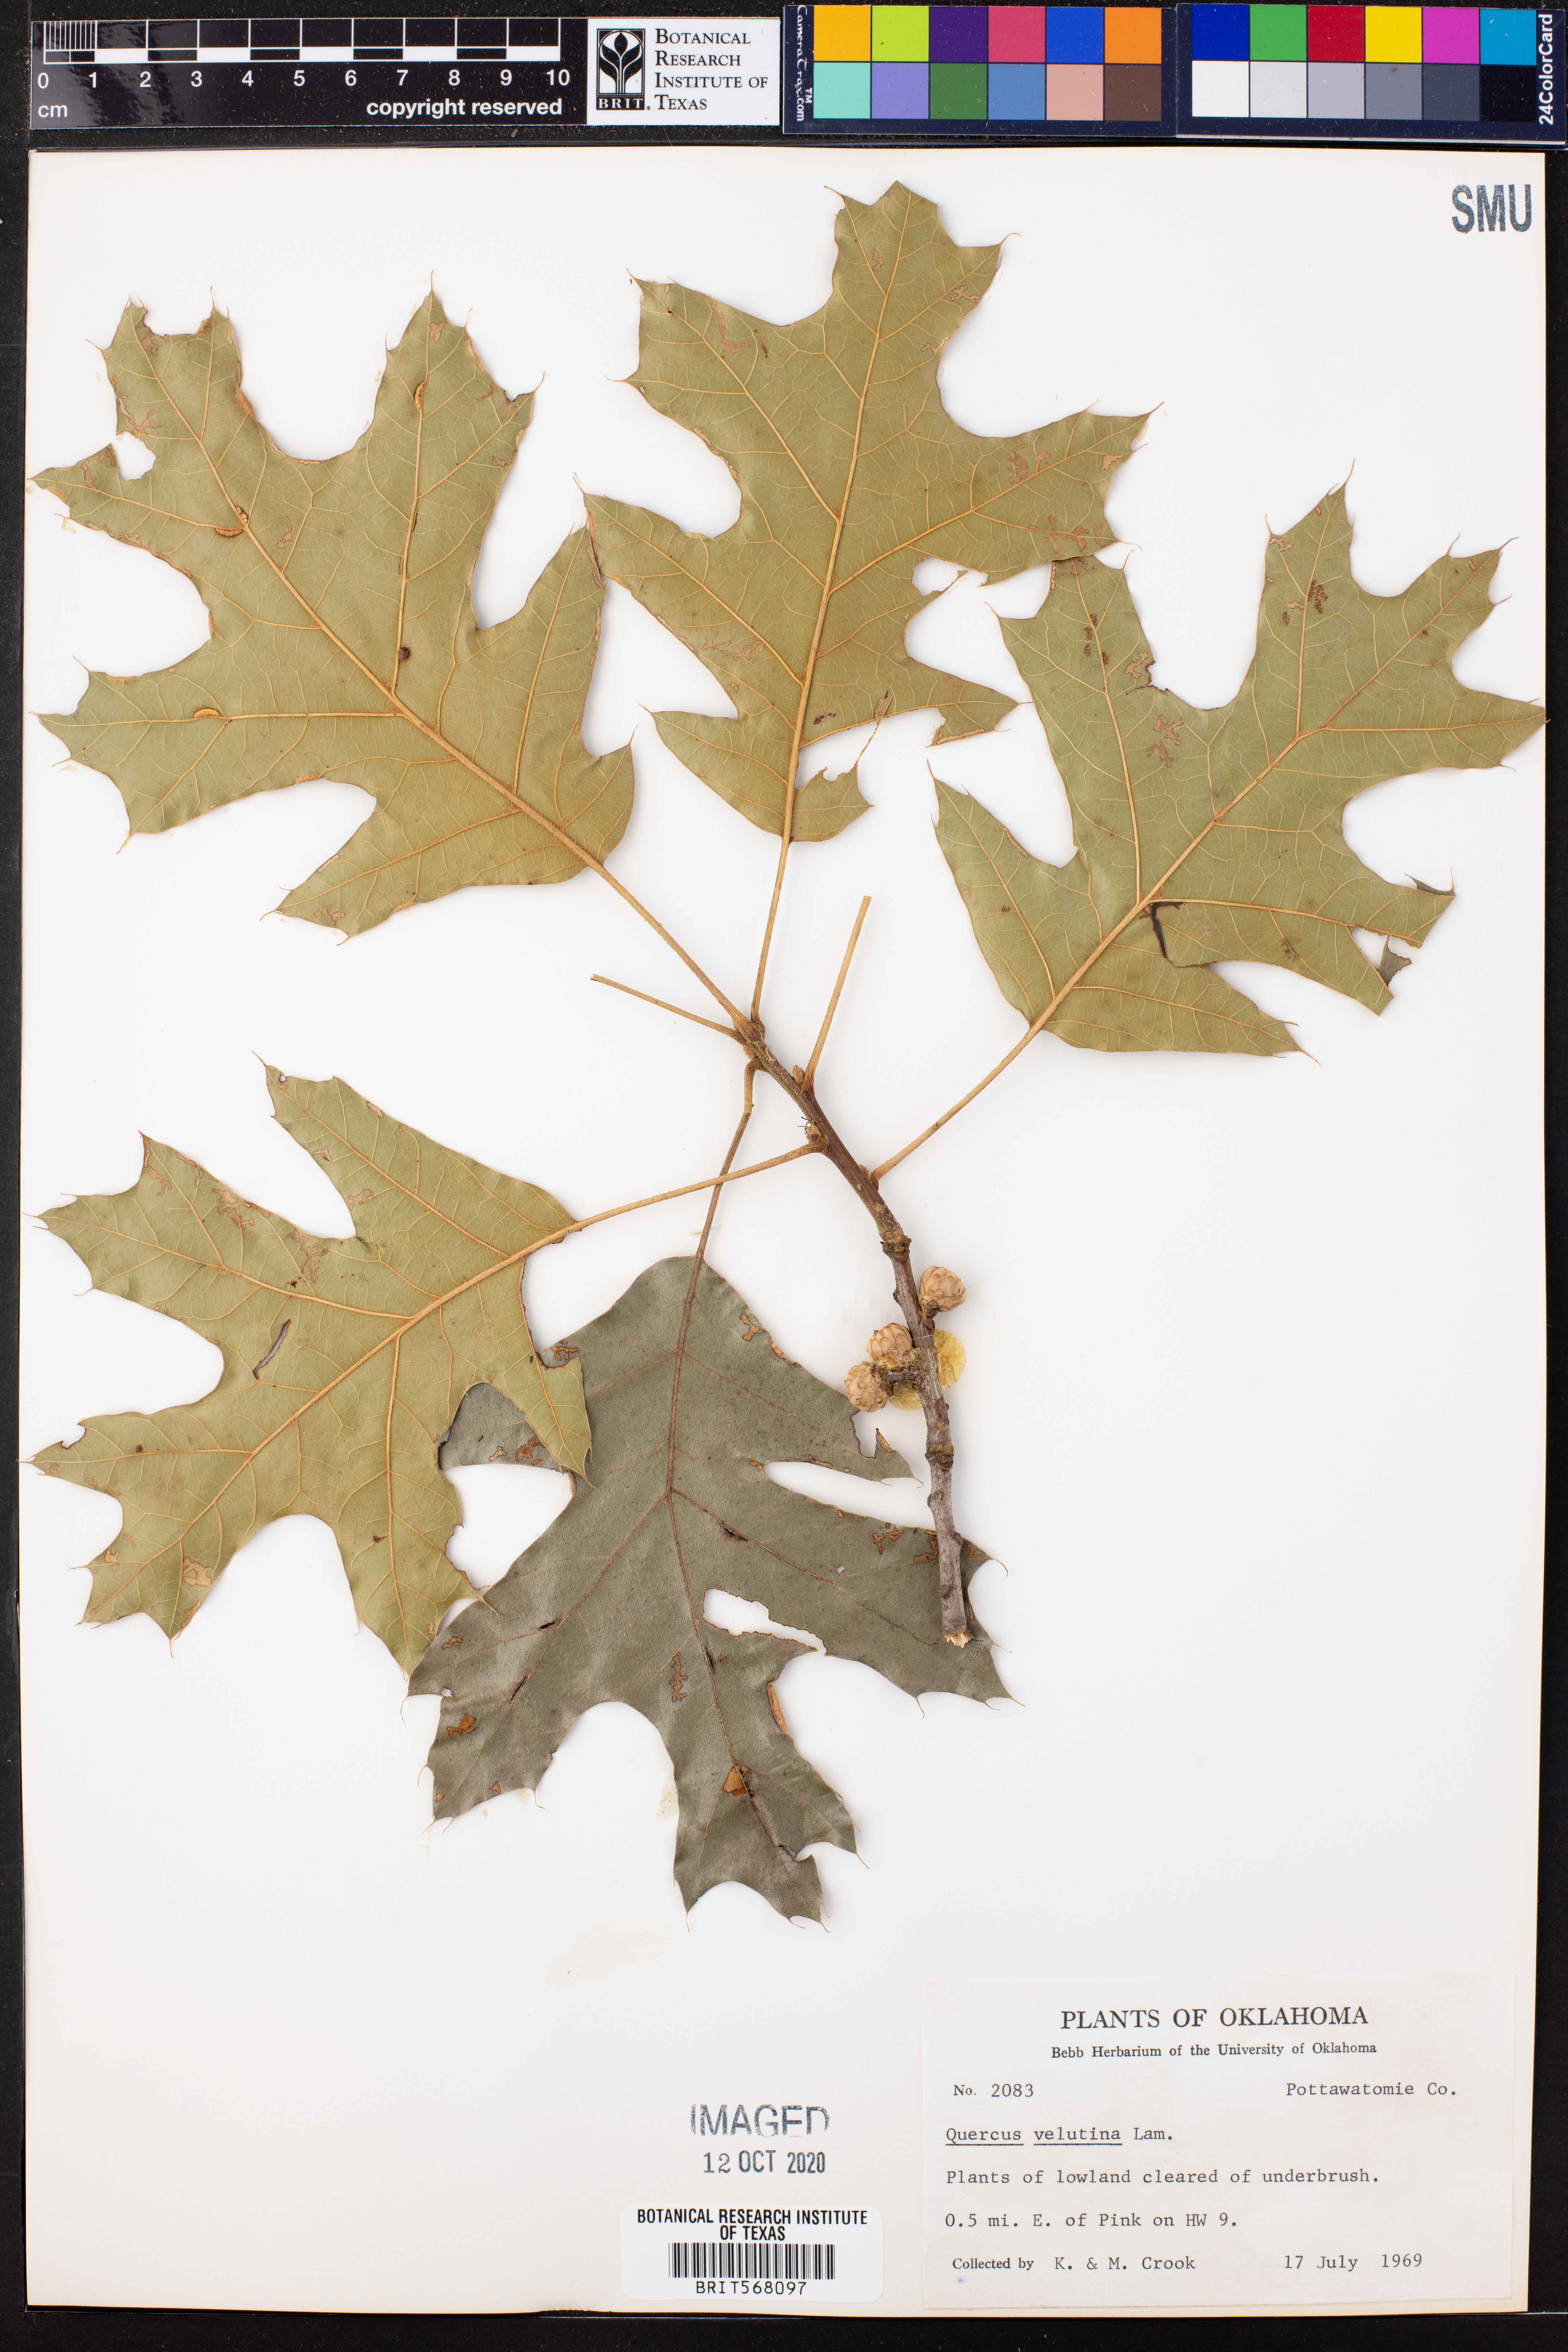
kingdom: Plantae
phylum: Tracheophyta
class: Magnoliopsida
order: Fagales
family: Fagaceae
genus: Quercus
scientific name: Quercus velutina
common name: Black oak
